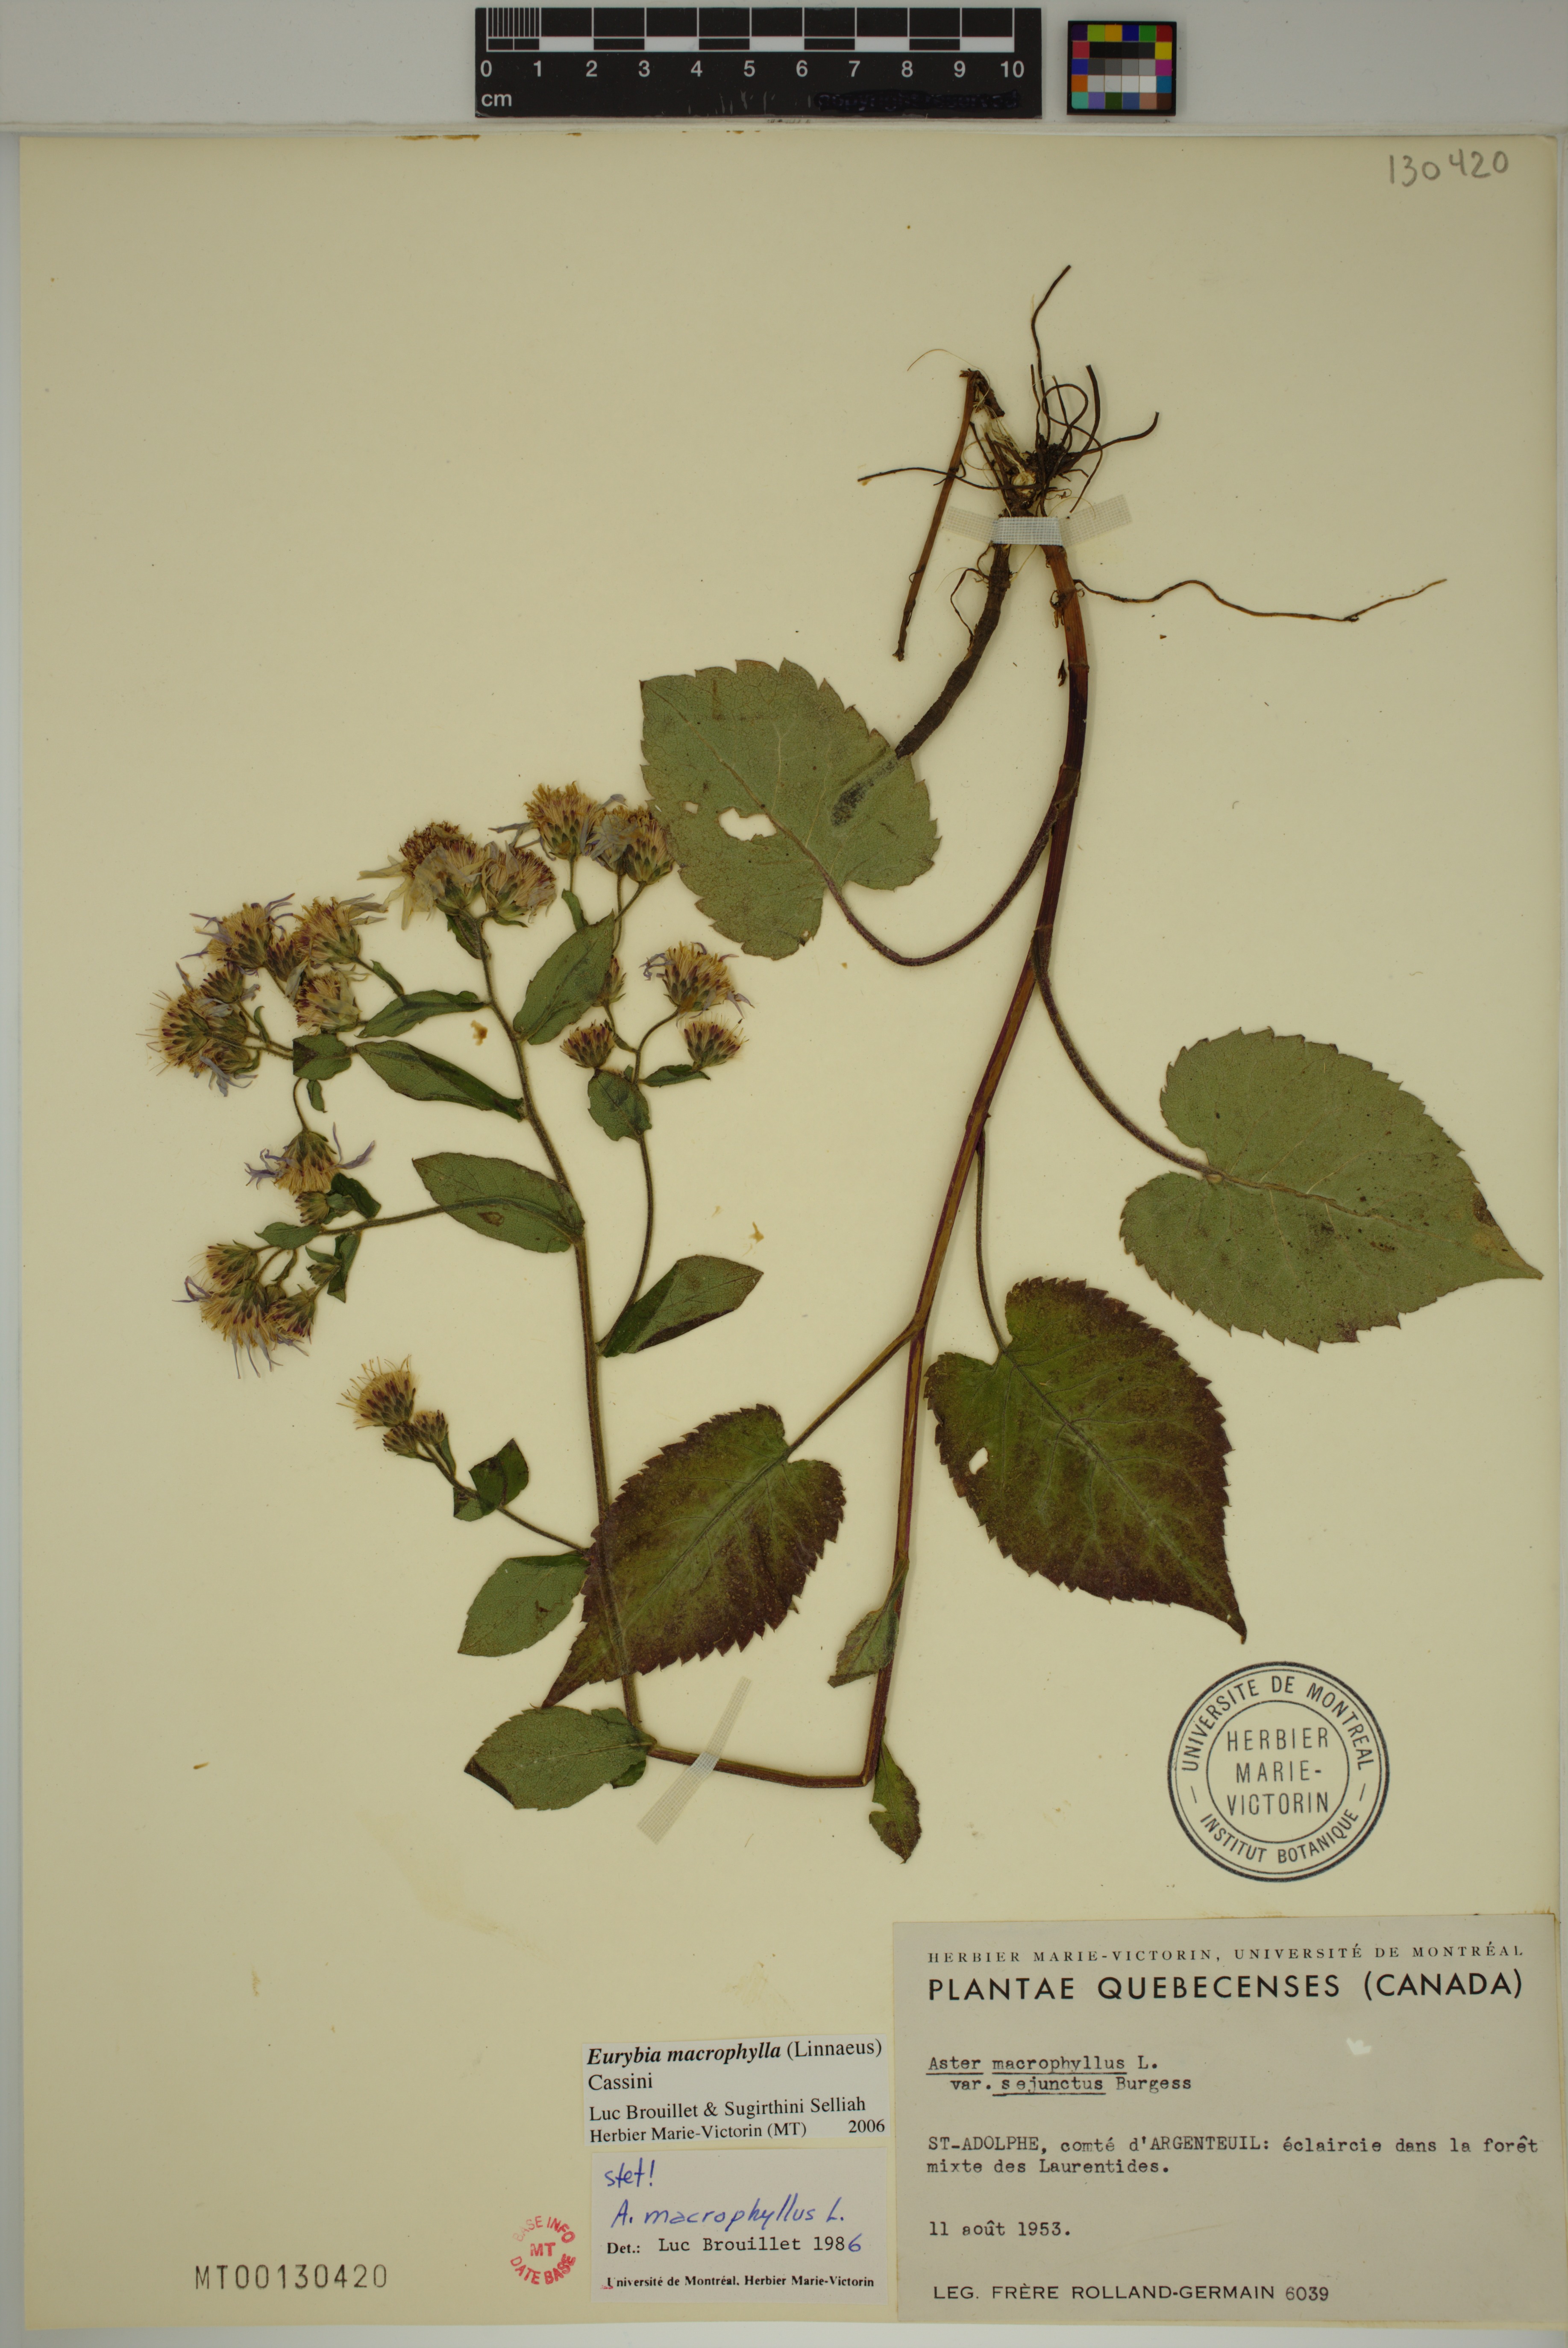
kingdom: Plantae
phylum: Tracheophyta
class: Magnoliopsida
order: Asterales
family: Asteraceae
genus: Eurybia
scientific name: Eurybia macrophylla
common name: Big-leaved aster
